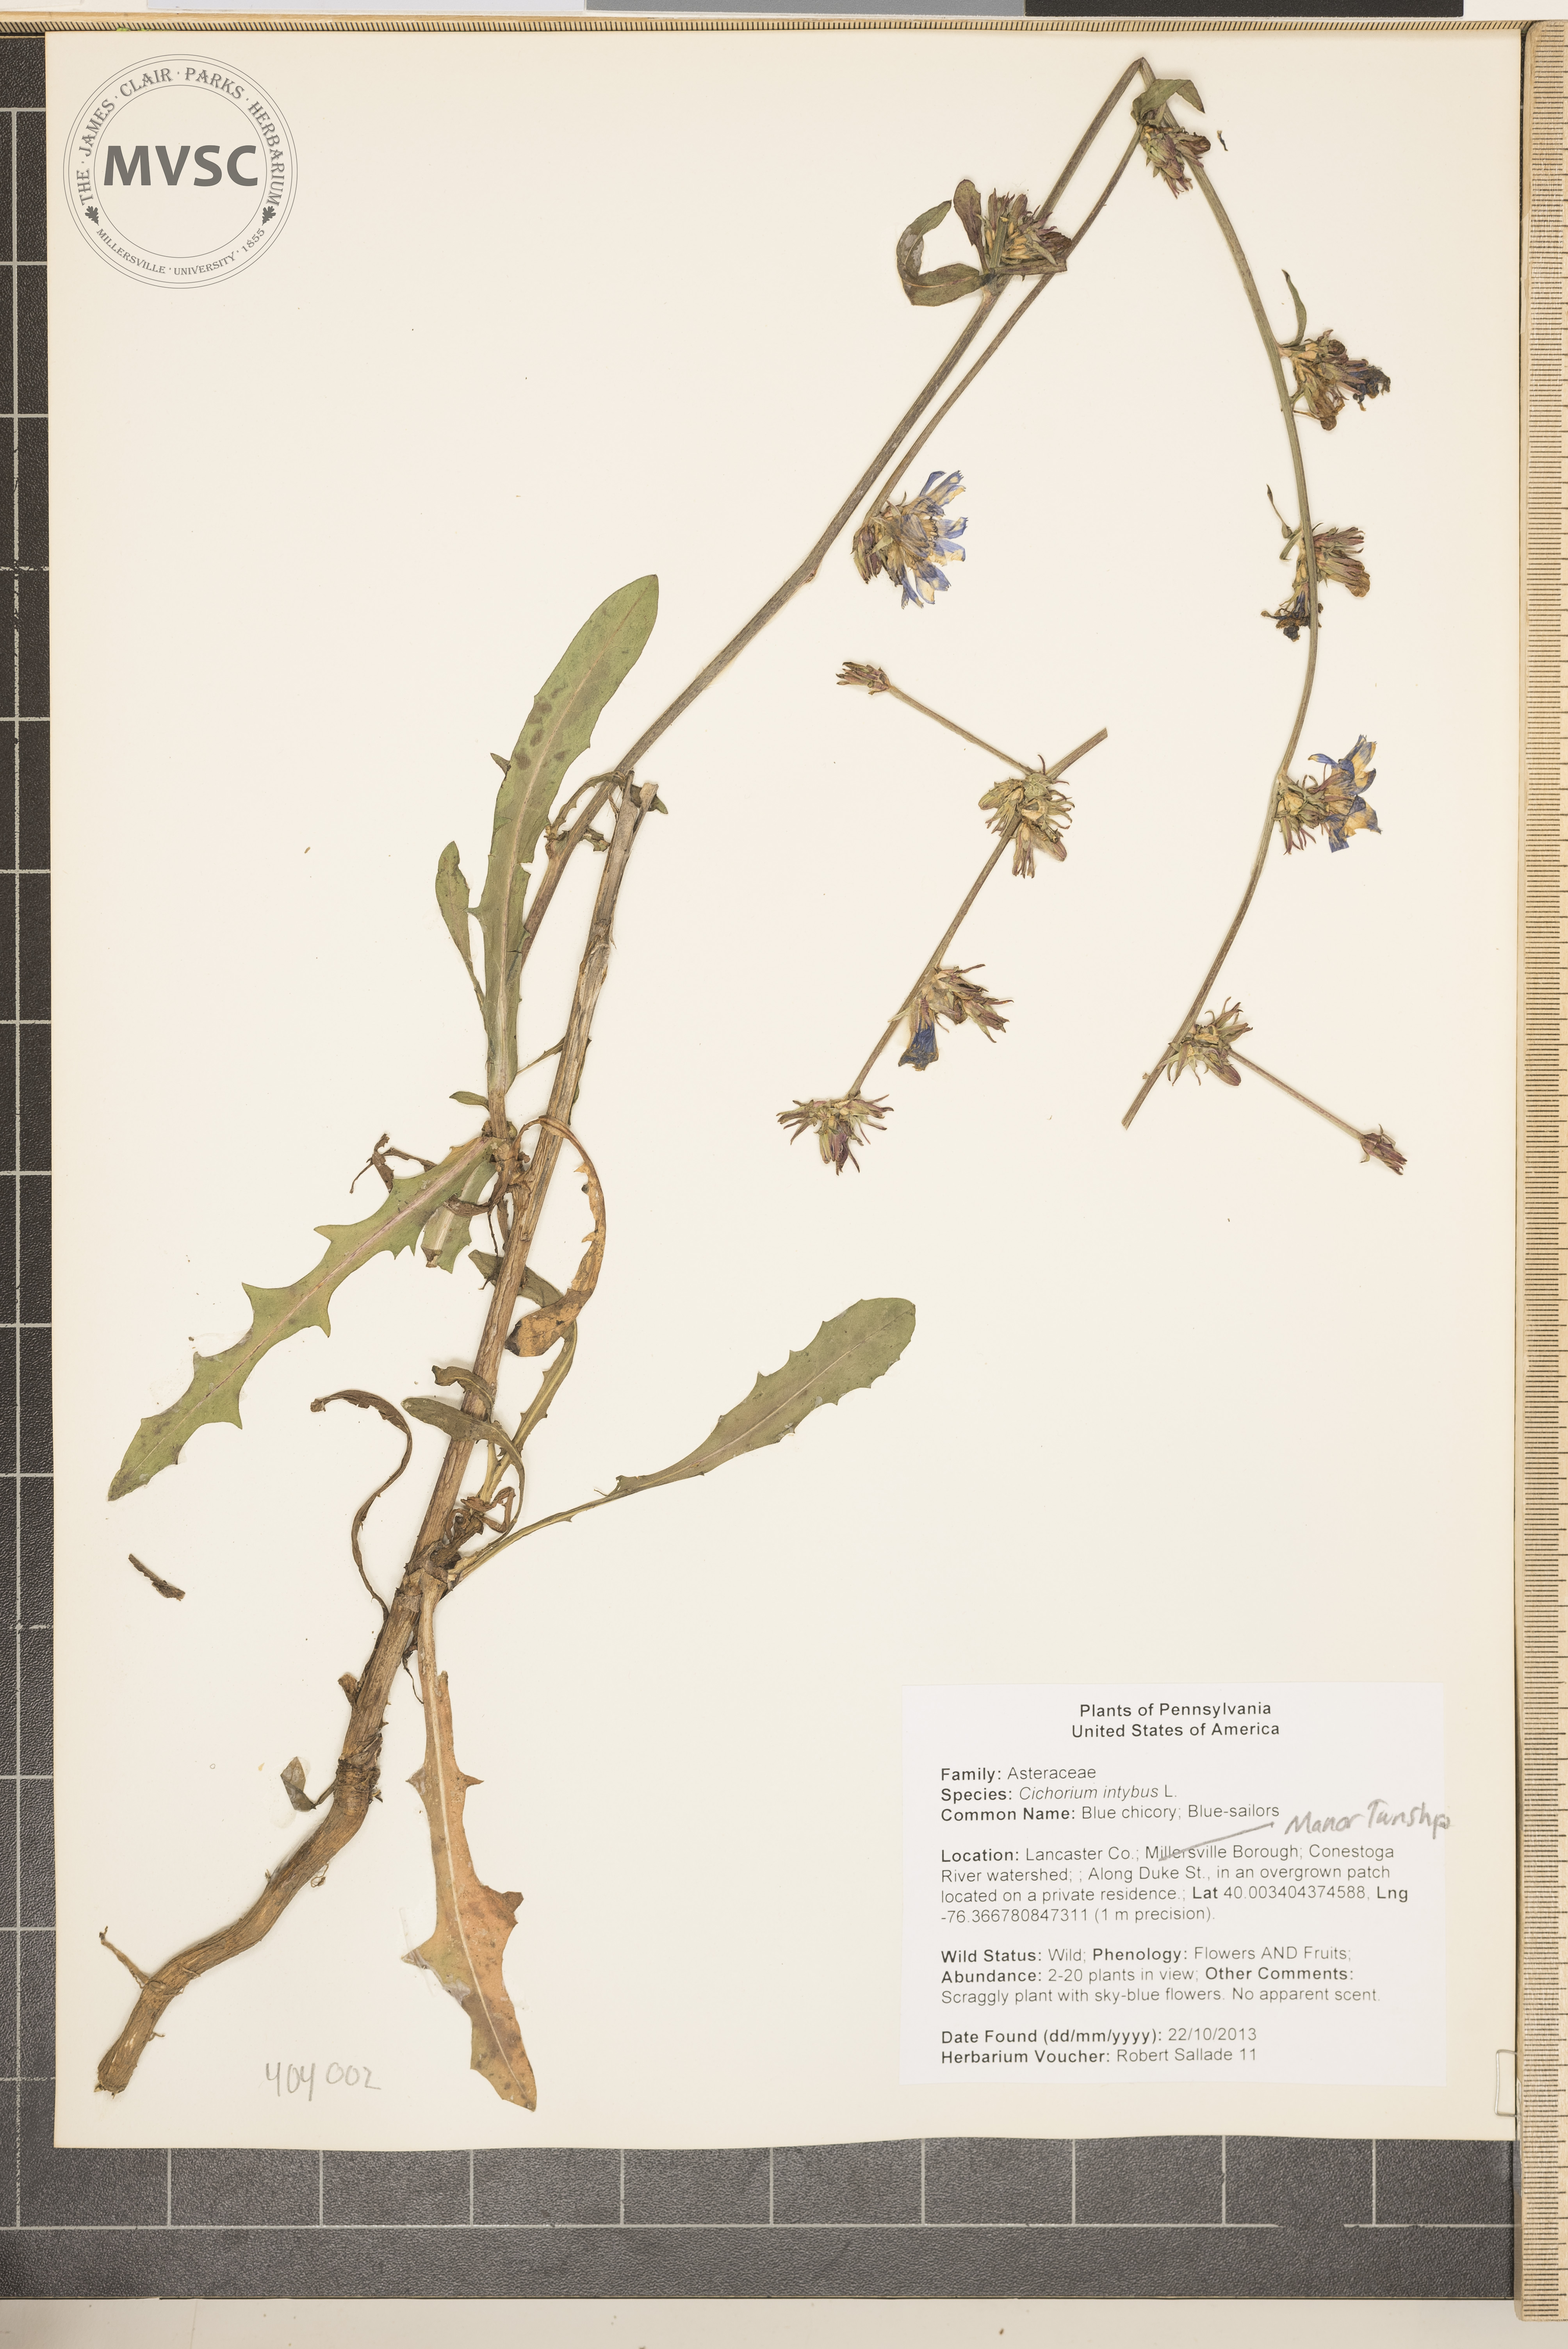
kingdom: Plantae
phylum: Tracheophyta
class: Magnoliopsida
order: Asterales
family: Asteraceae
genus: Cichorium
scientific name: Cichorium intybus
